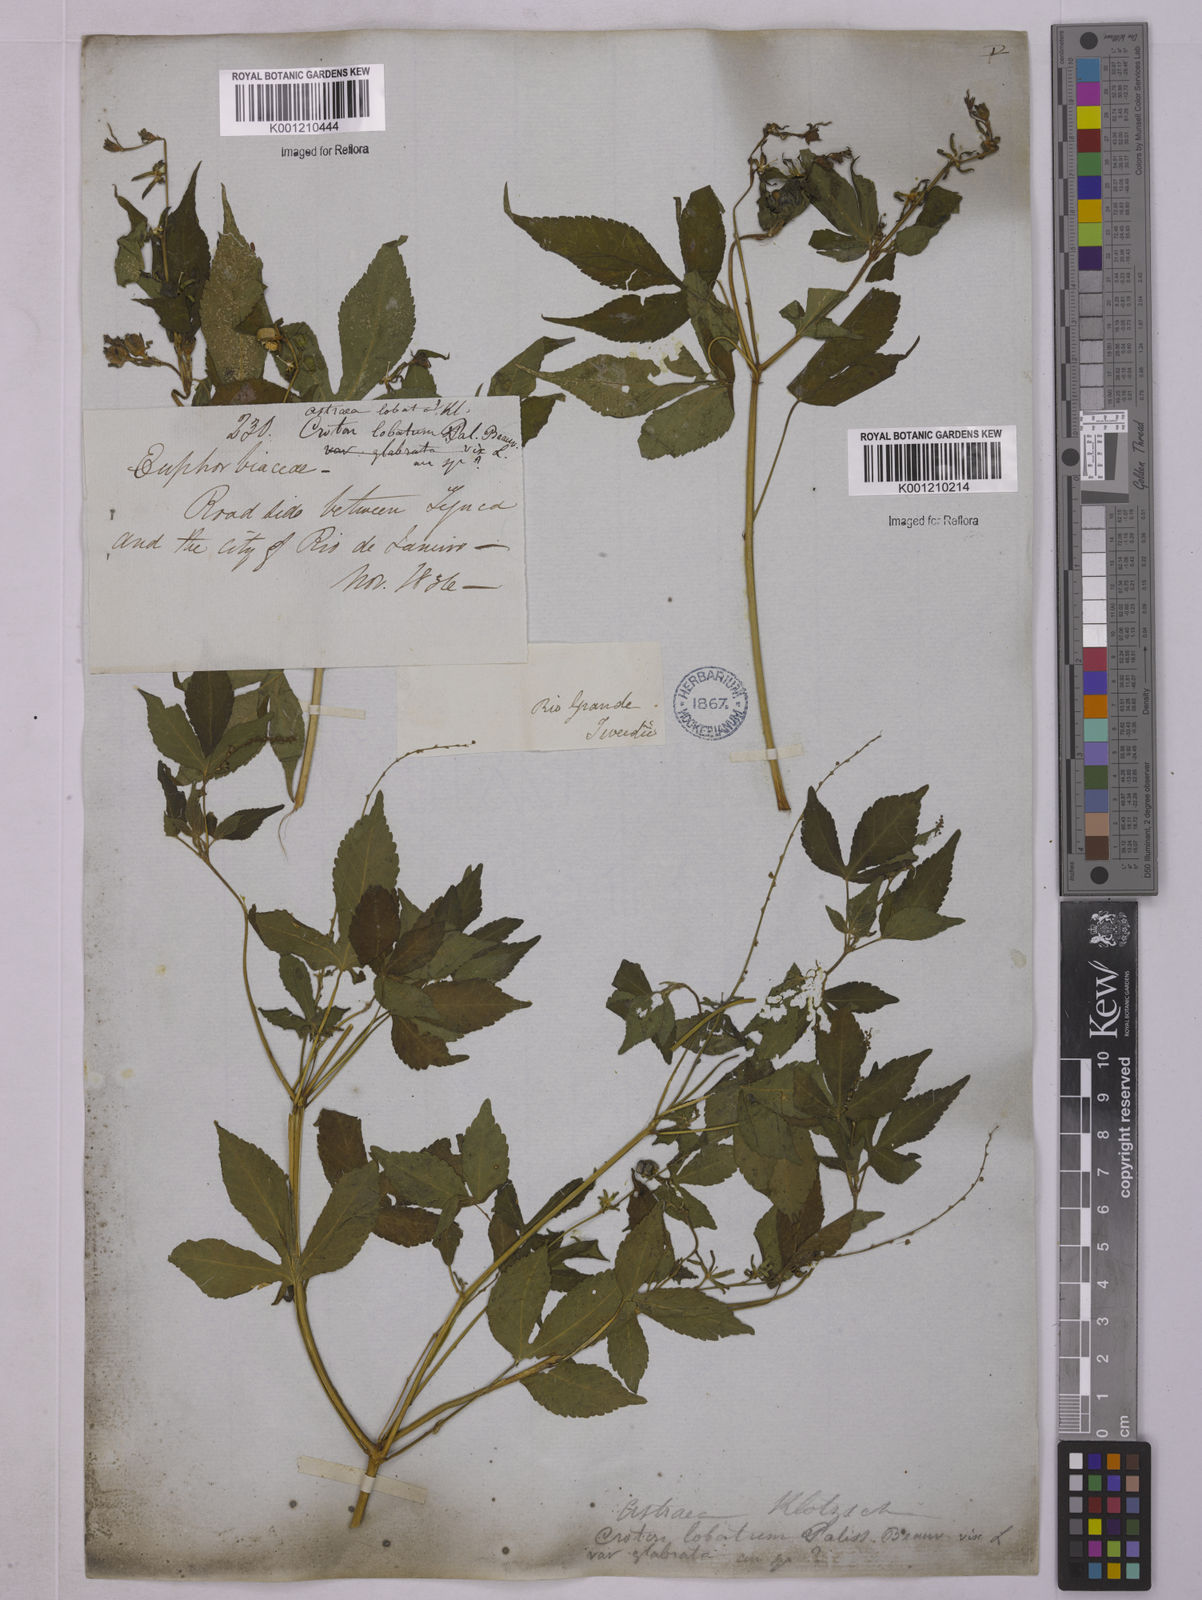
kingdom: Plantae
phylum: Tracheophyta
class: Magnoliopsida
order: Malpighiales
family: Euphorbiaceae
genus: Astraea
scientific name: Astraea lobata
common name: Lobed croton
